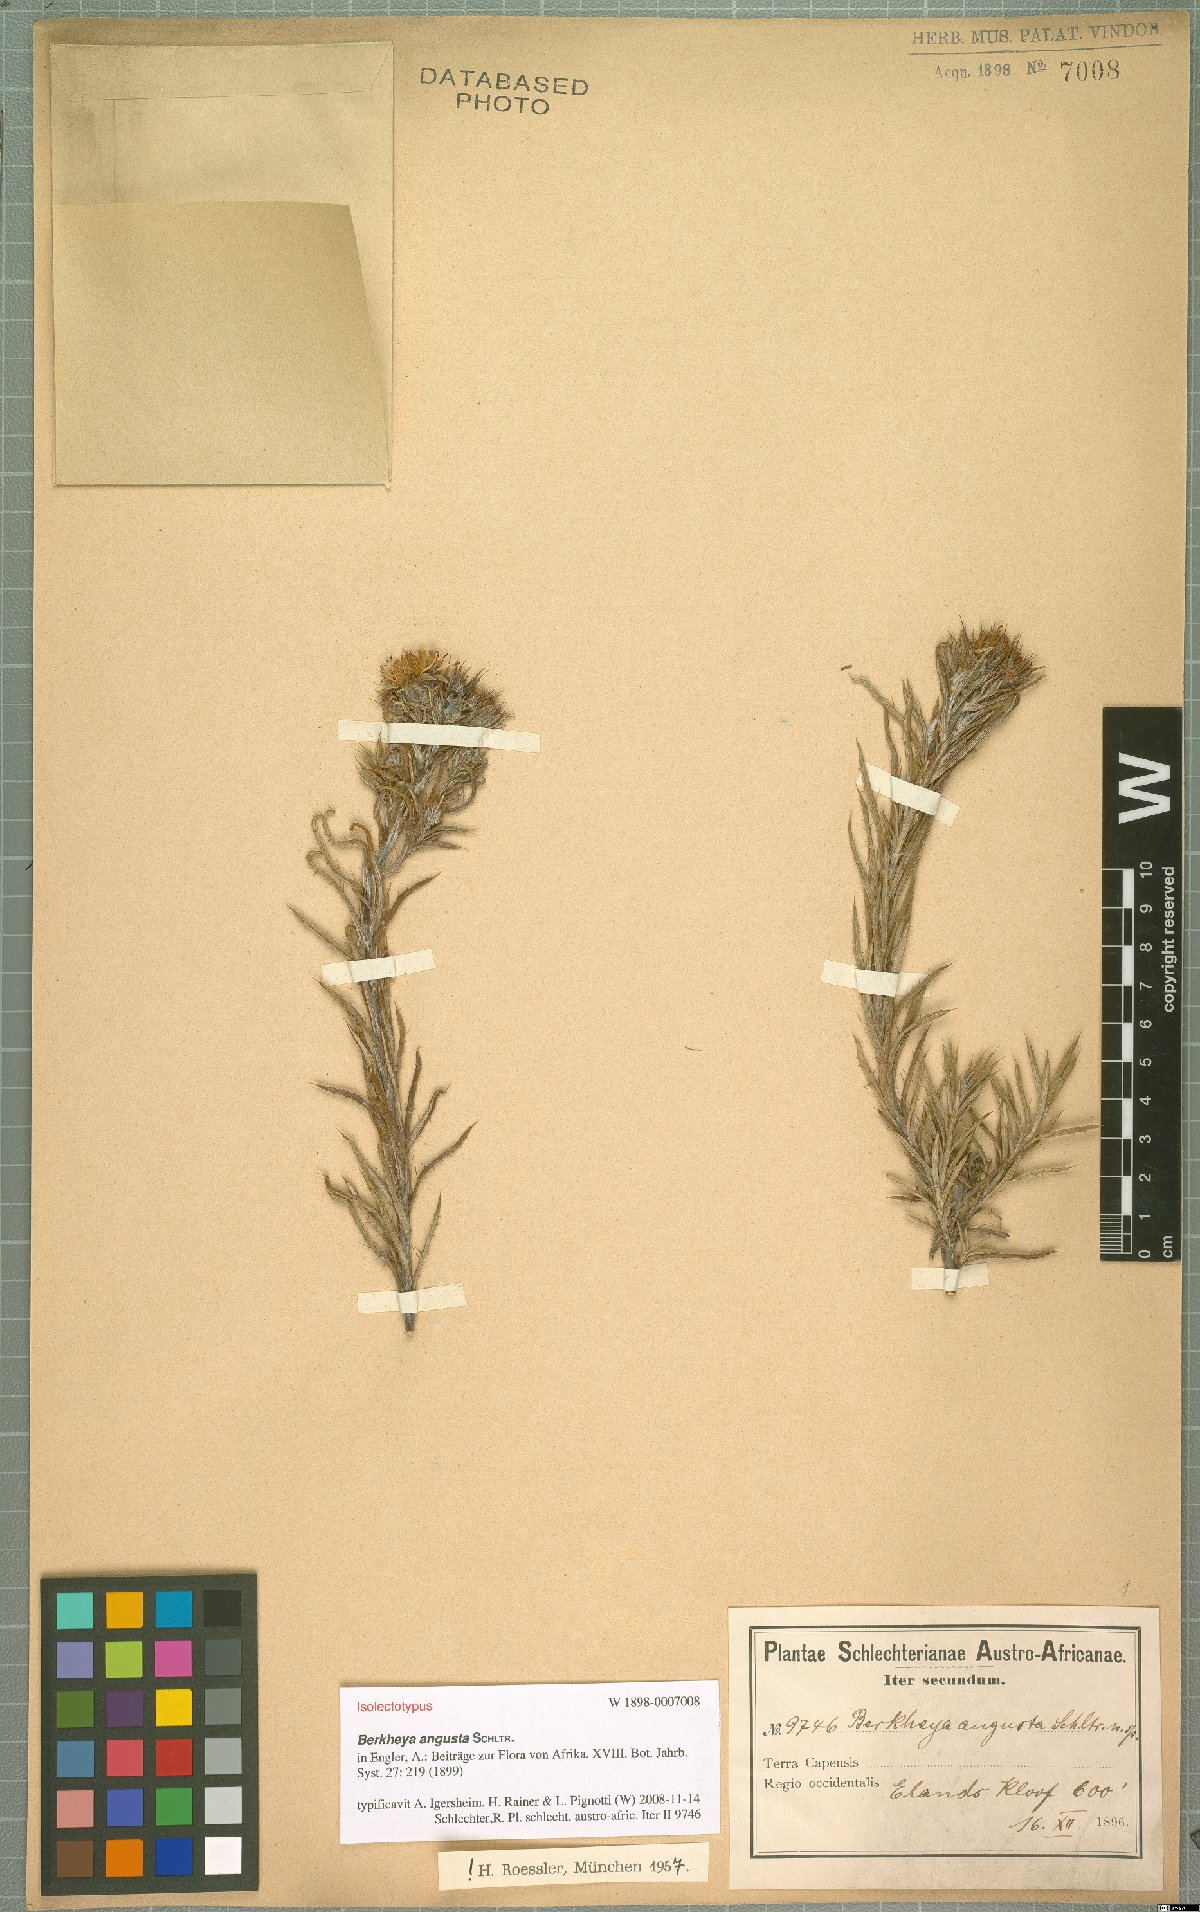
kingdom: Plantae
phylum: Tracheophyta
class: Magnoliopsida
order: Asterales
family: Asteraceae
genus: Berkheya
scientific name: Berkheya angusta
